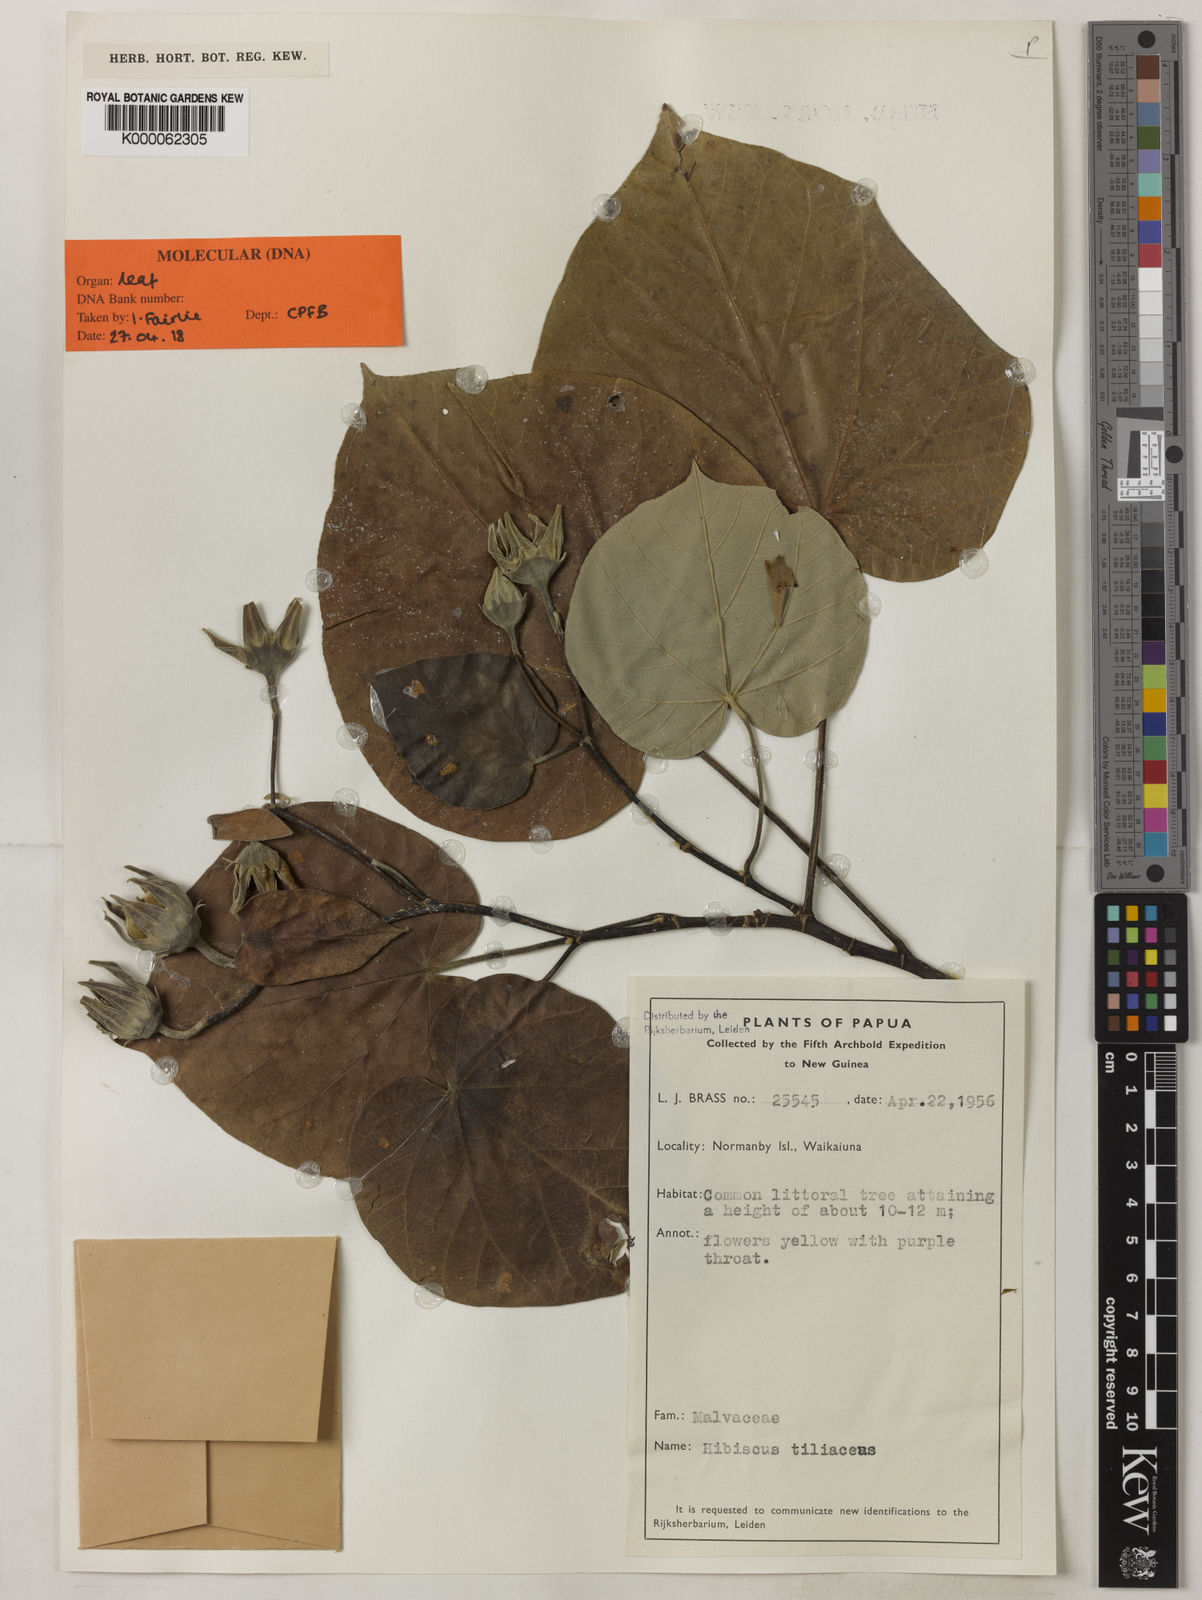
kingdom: Plantae
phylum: Tracheophyta
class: Magnoliopsida
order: Malvales
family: Malvaceae
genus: Talipariti
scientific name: Talipariti tiliaceum
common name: Sea hibiscus
